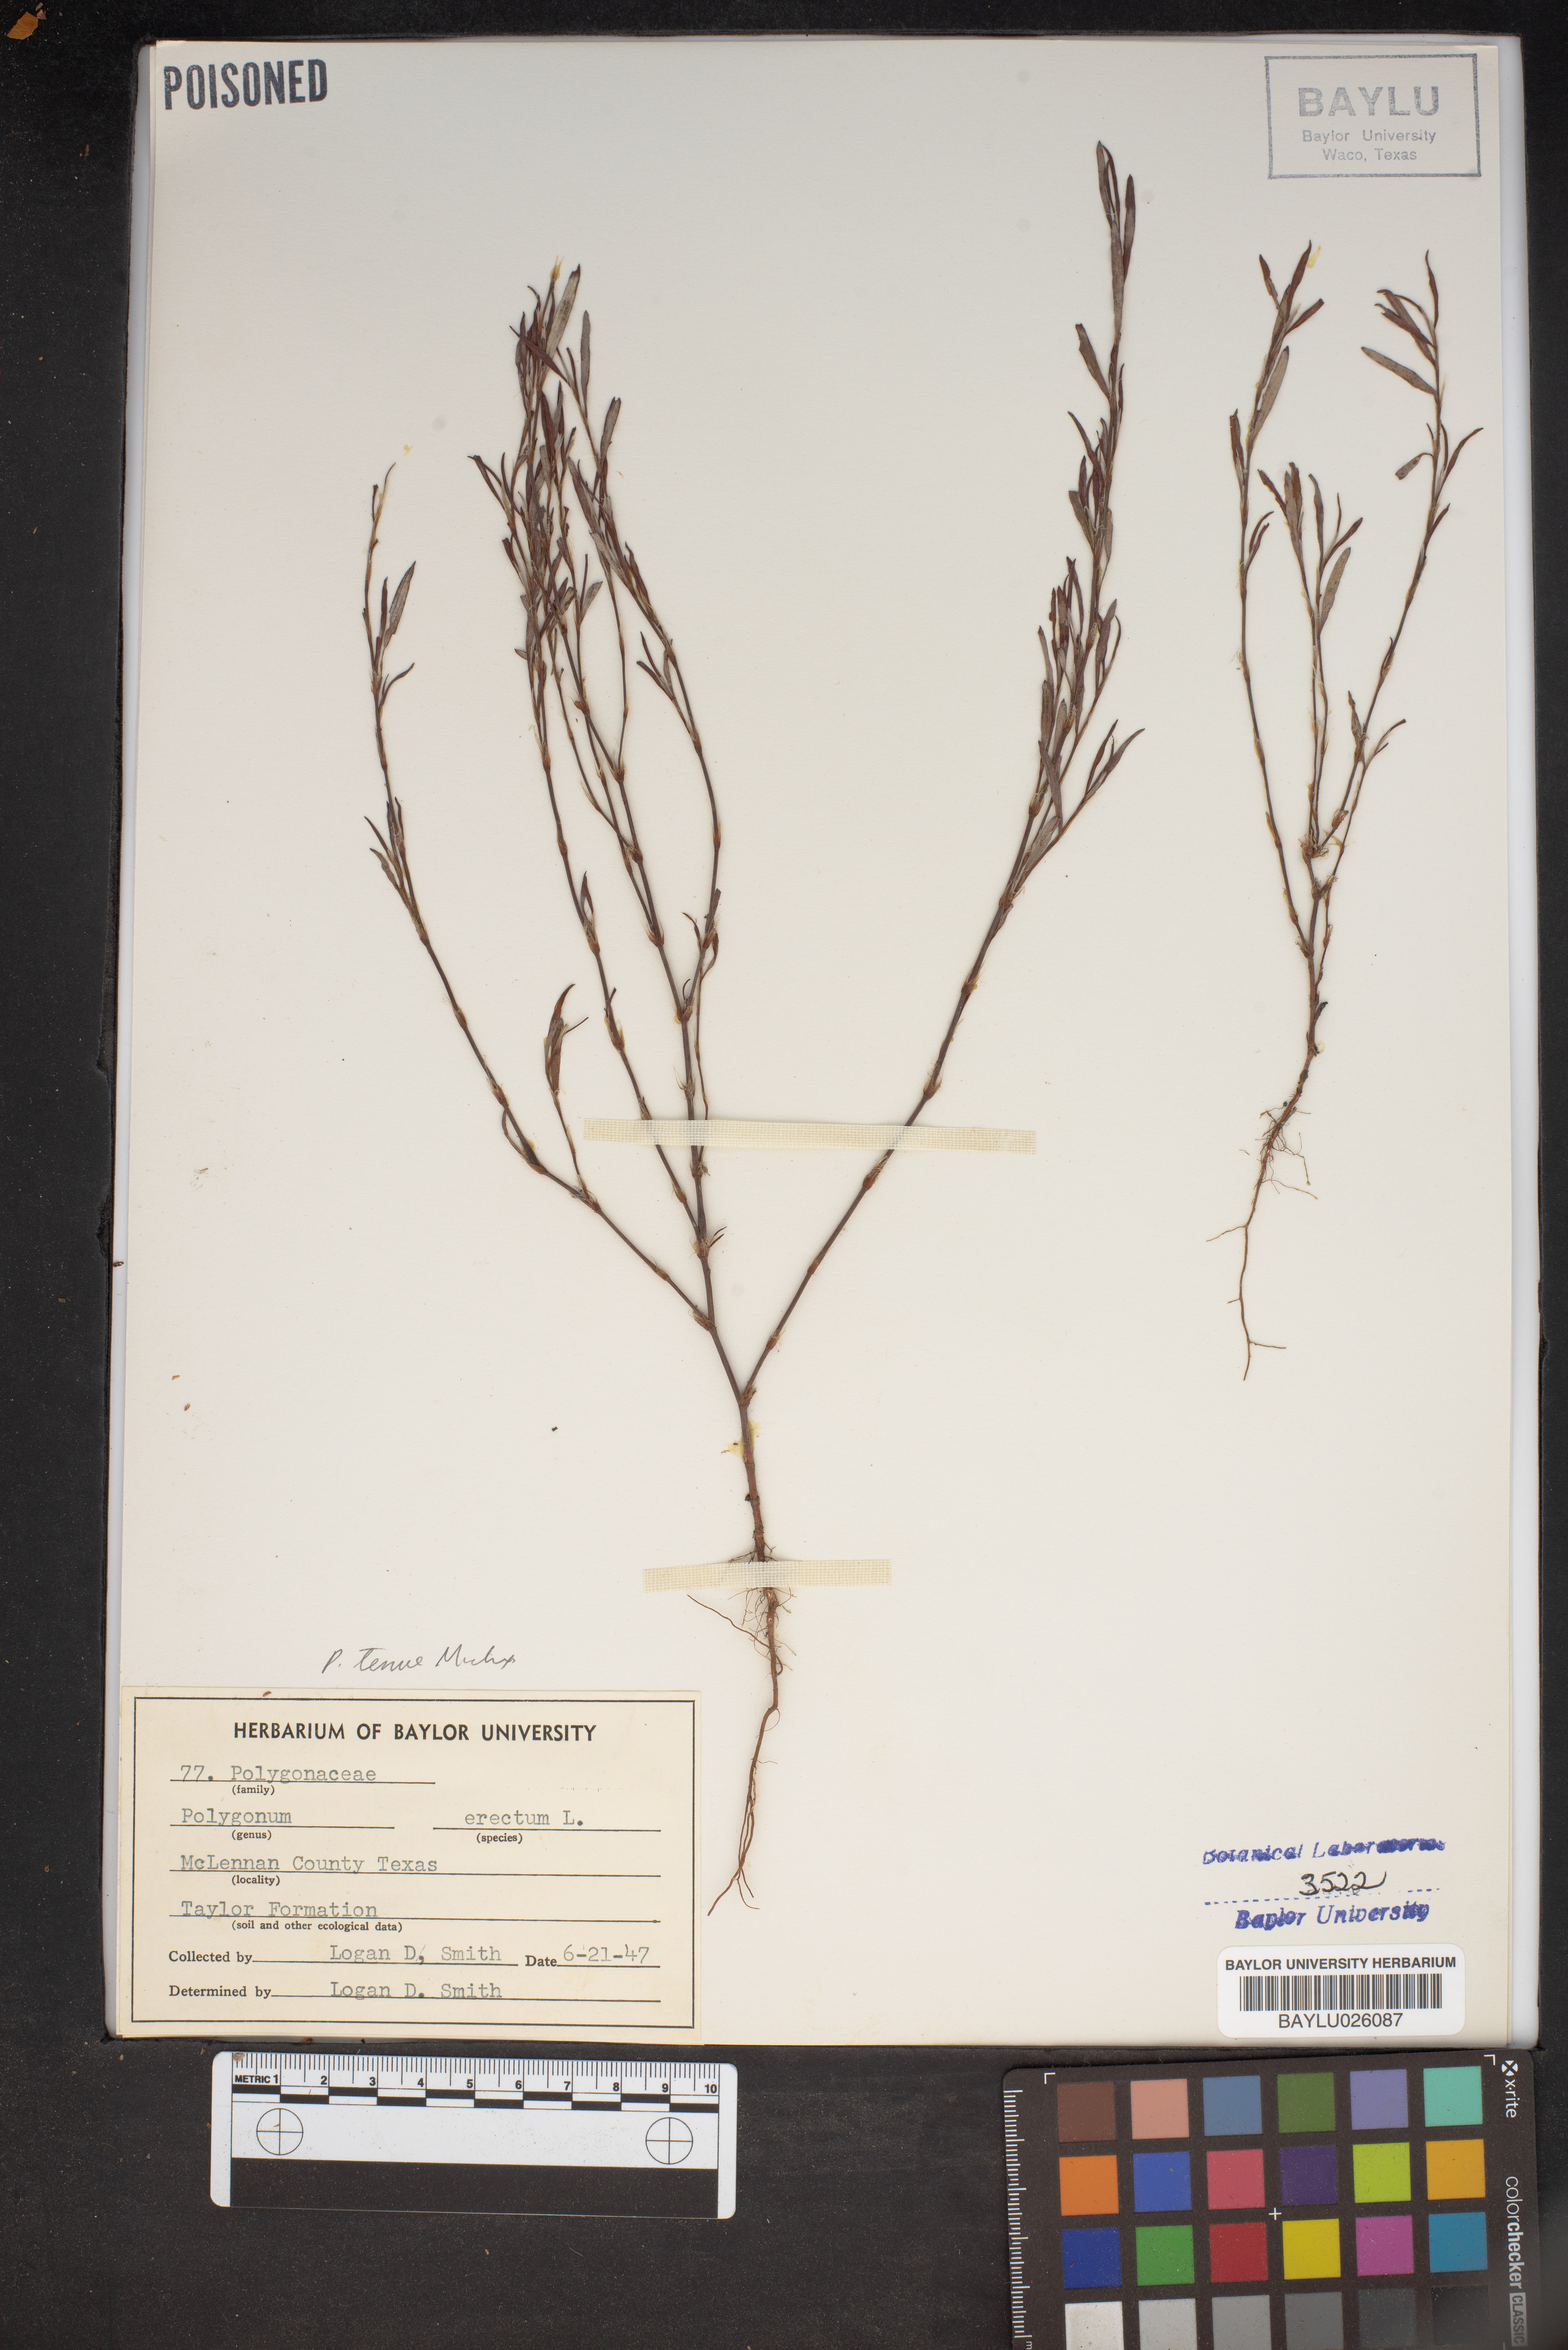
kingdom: Plantae
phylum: Tracheophyta
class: Magnoliopsida
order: Caryophyllales
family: Polygonaceae
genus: Polygonum
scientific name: Polygonum erectum
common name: Erect knotweed
